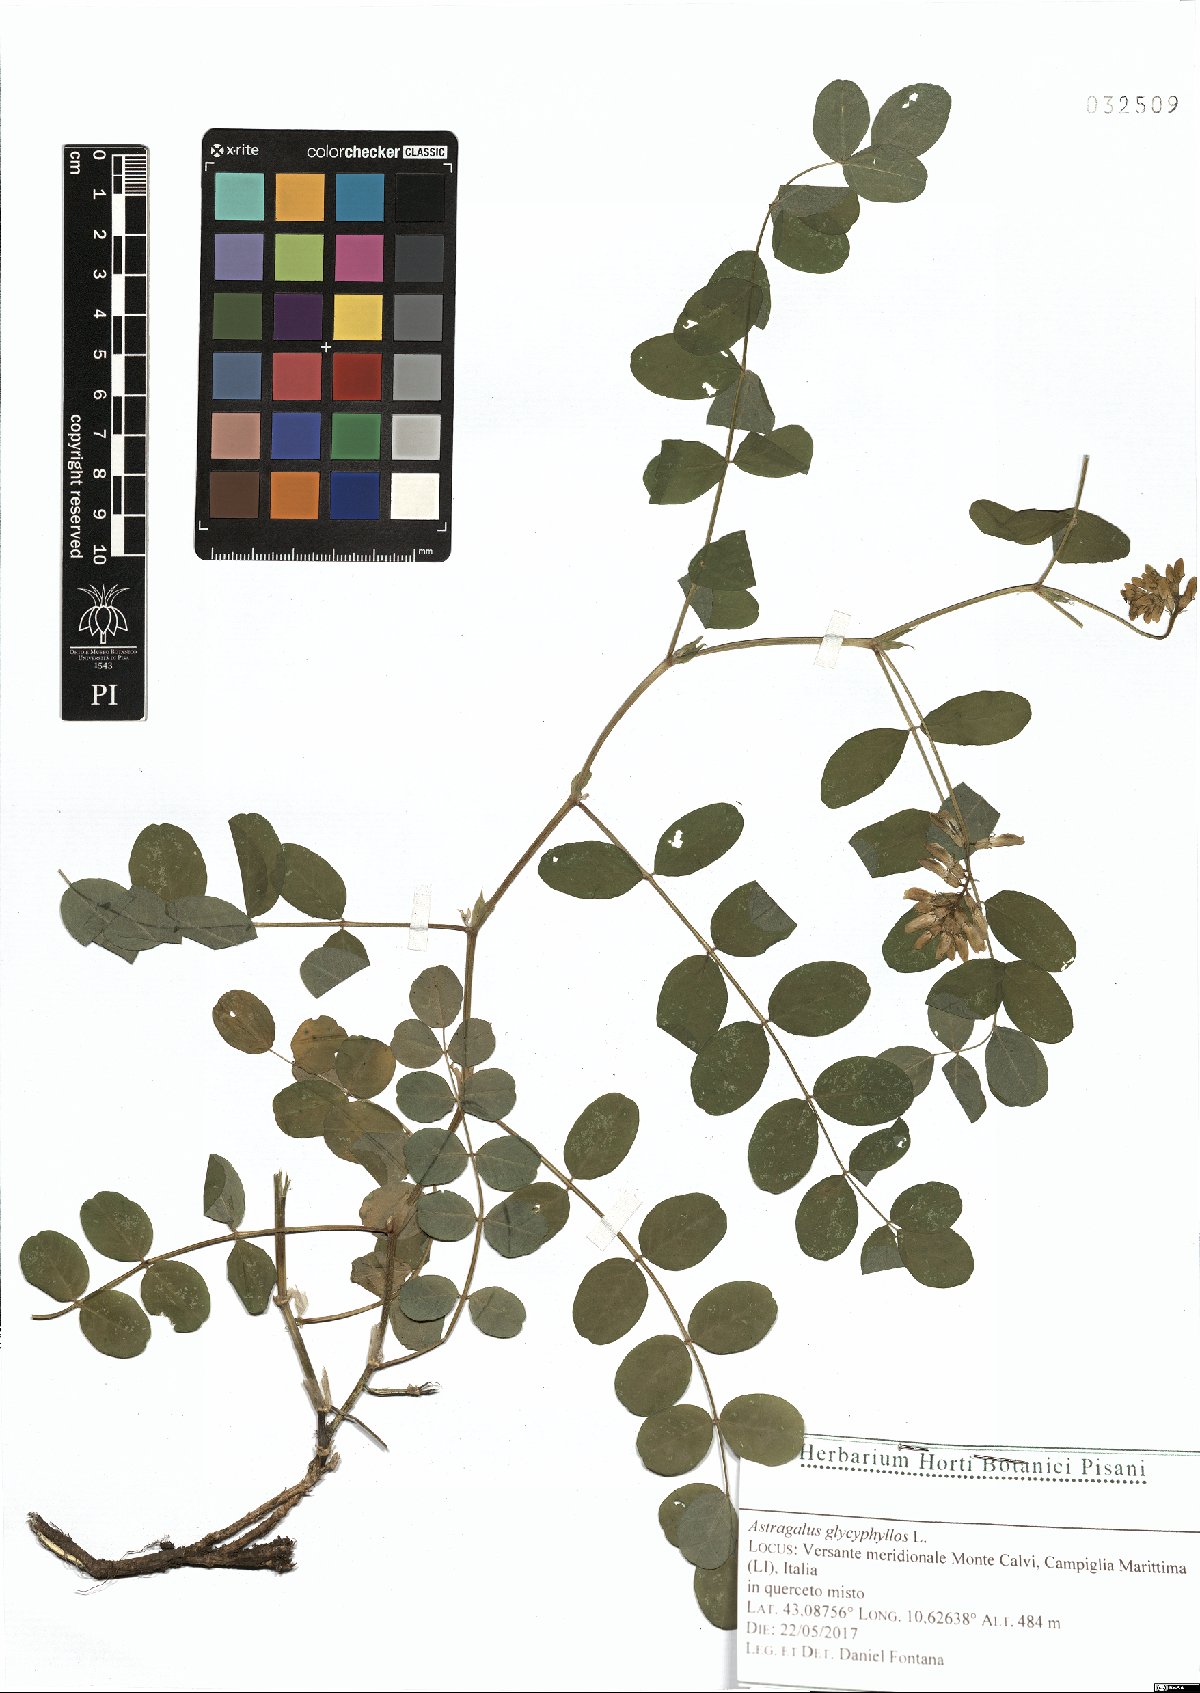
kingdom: Plantae
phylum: Tracheophyta
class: Magnoliopsida
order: Fabales
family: Fabaceae
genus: Astragalus
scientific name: Astragalus glycyphyllos
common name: Wild liquorice
